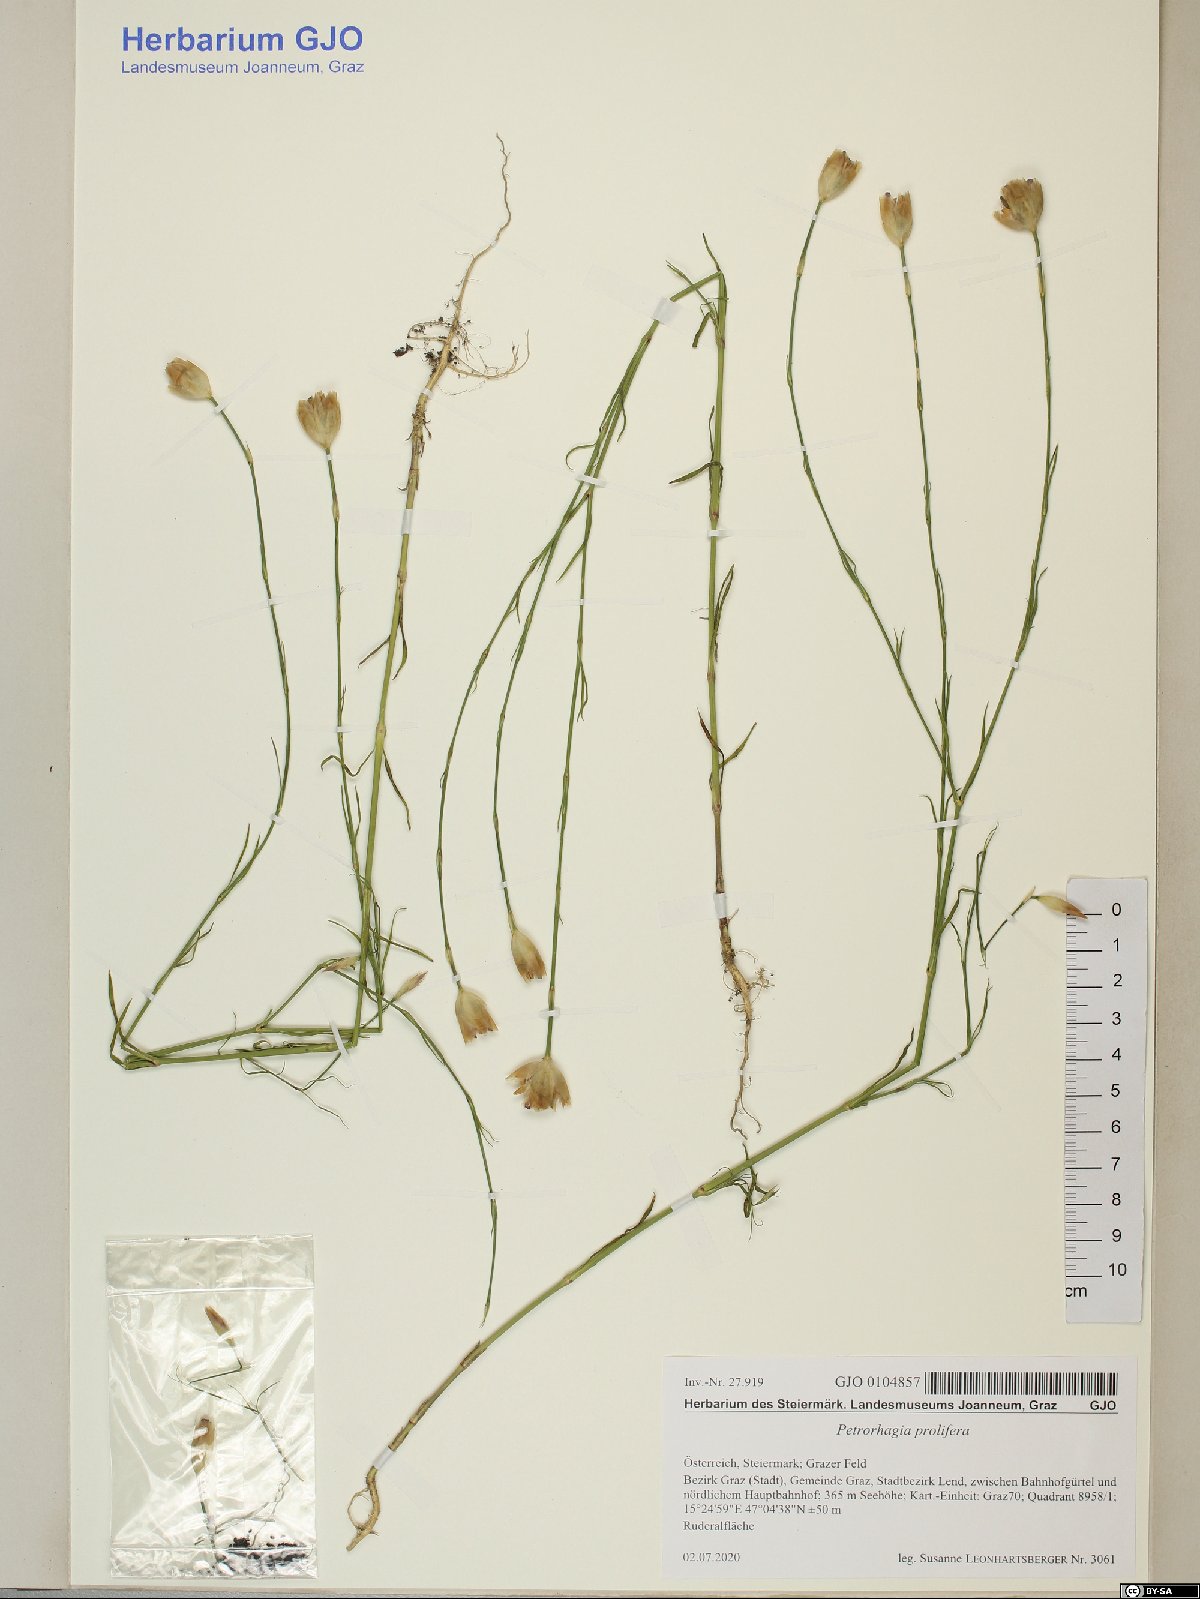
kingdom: Plantae
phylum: Tracheophyta
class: Magnoliopsida
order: Caryophyllales
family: Caryophyllaceae
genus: Petrorhagia
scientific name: Petrorhagia prolifera
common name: Proliferous pink
